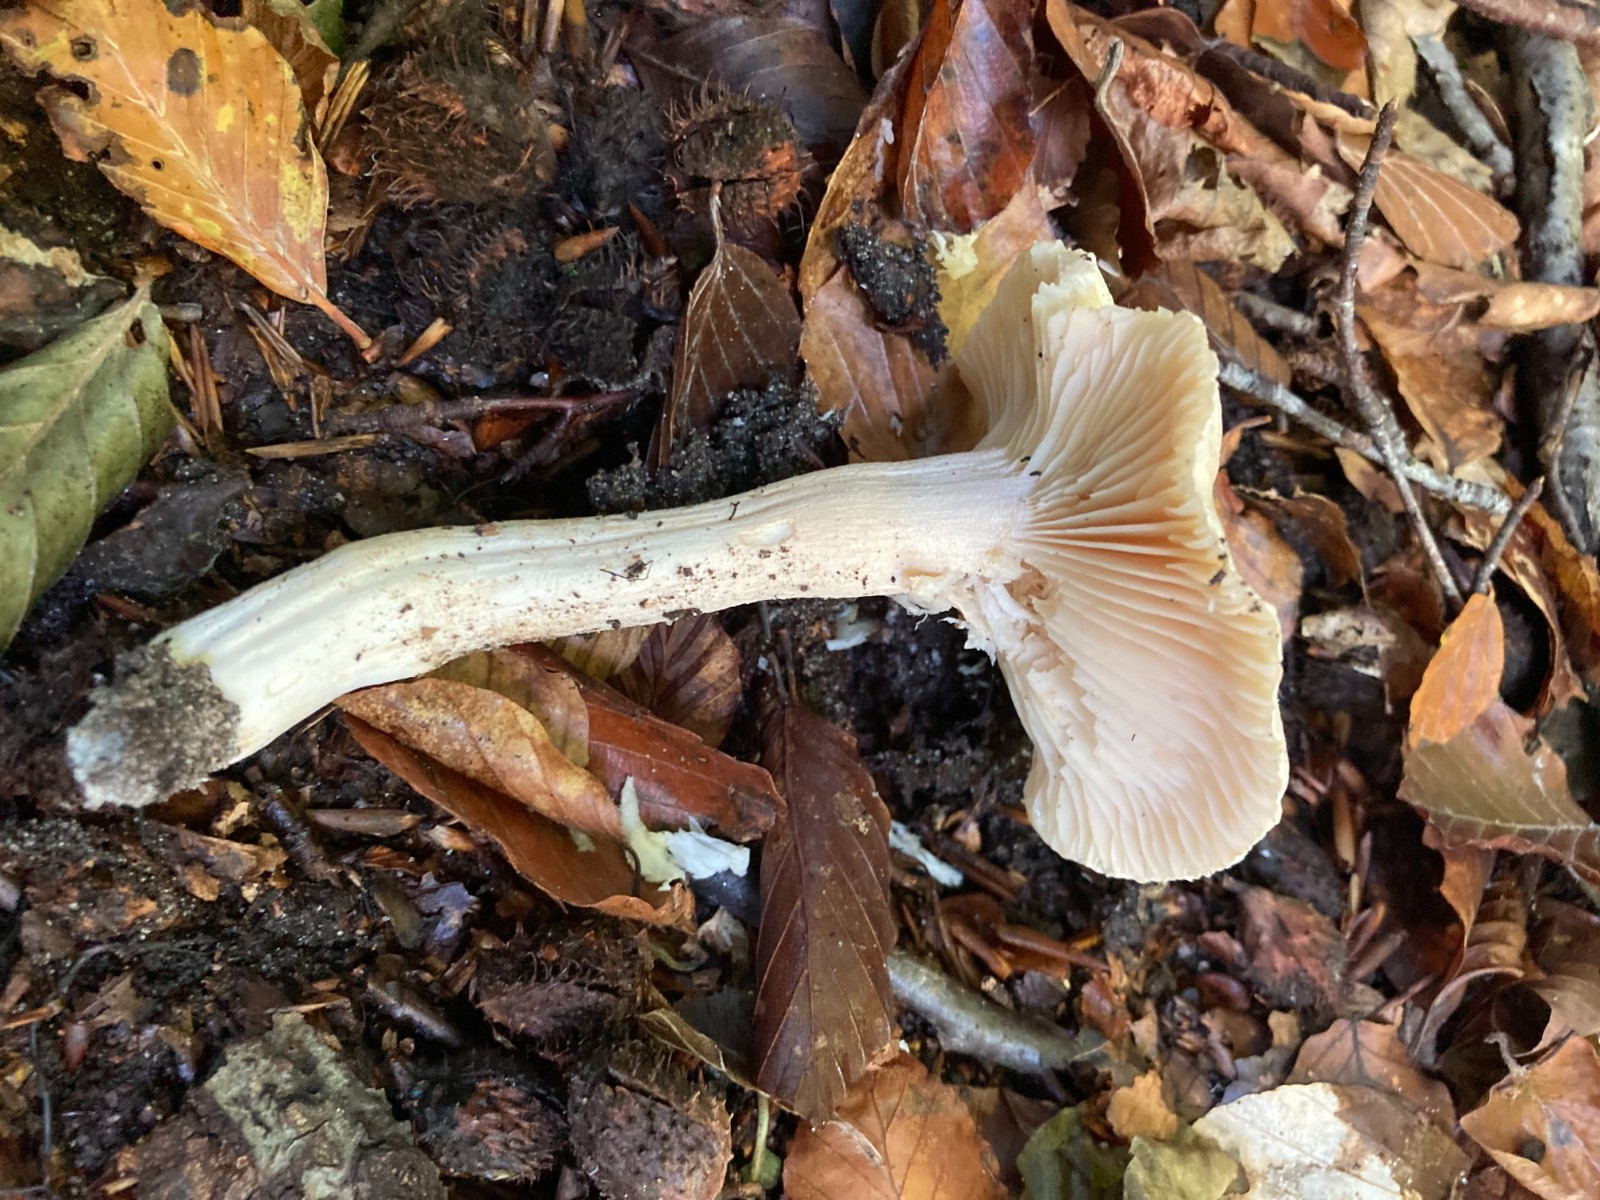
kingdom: Fungi
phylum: Basidiomycota
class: Agaricomycetes
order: Agaricales
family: Hygrophoraceae
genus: Hygrophorus
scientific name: Hygrophorus
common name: sneglehat
